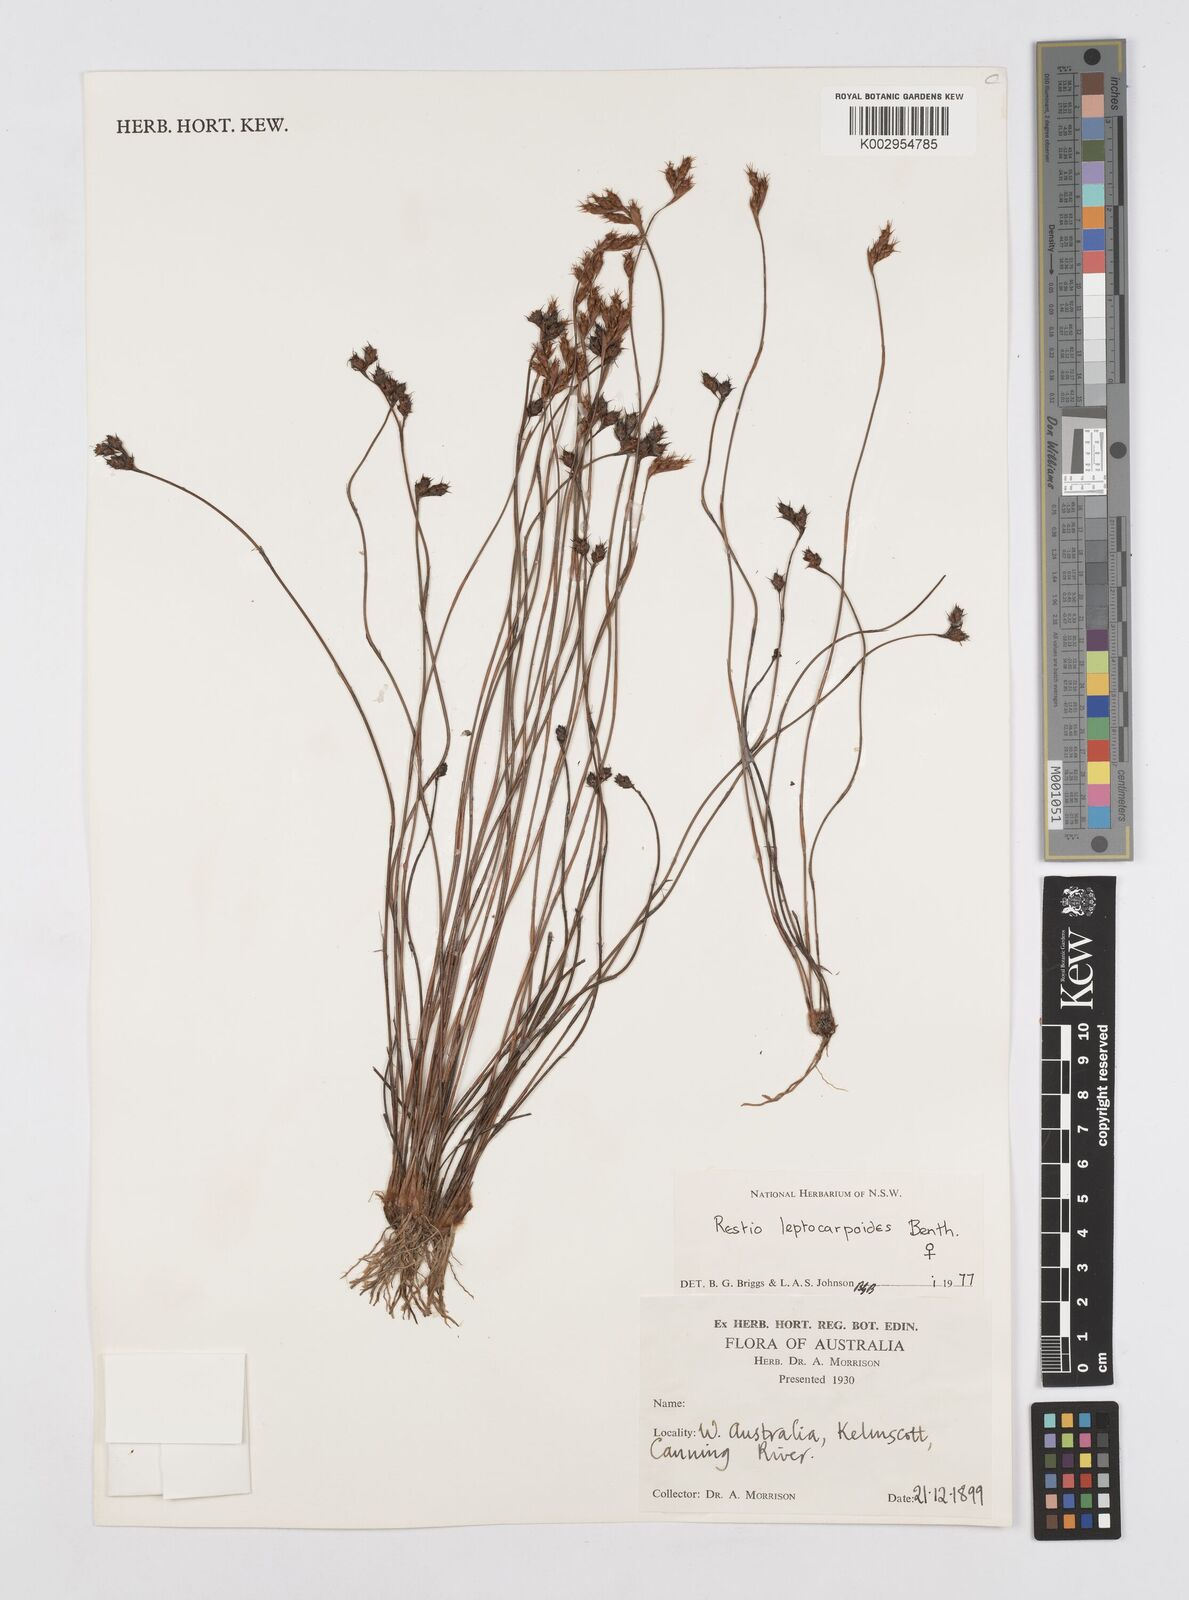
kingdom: Plantae
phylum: Tracheophyta
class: Liliopsida
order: Poales
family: Restionaceae
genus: Cytogonidium
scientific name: Cytogonidium leptocarpoides
